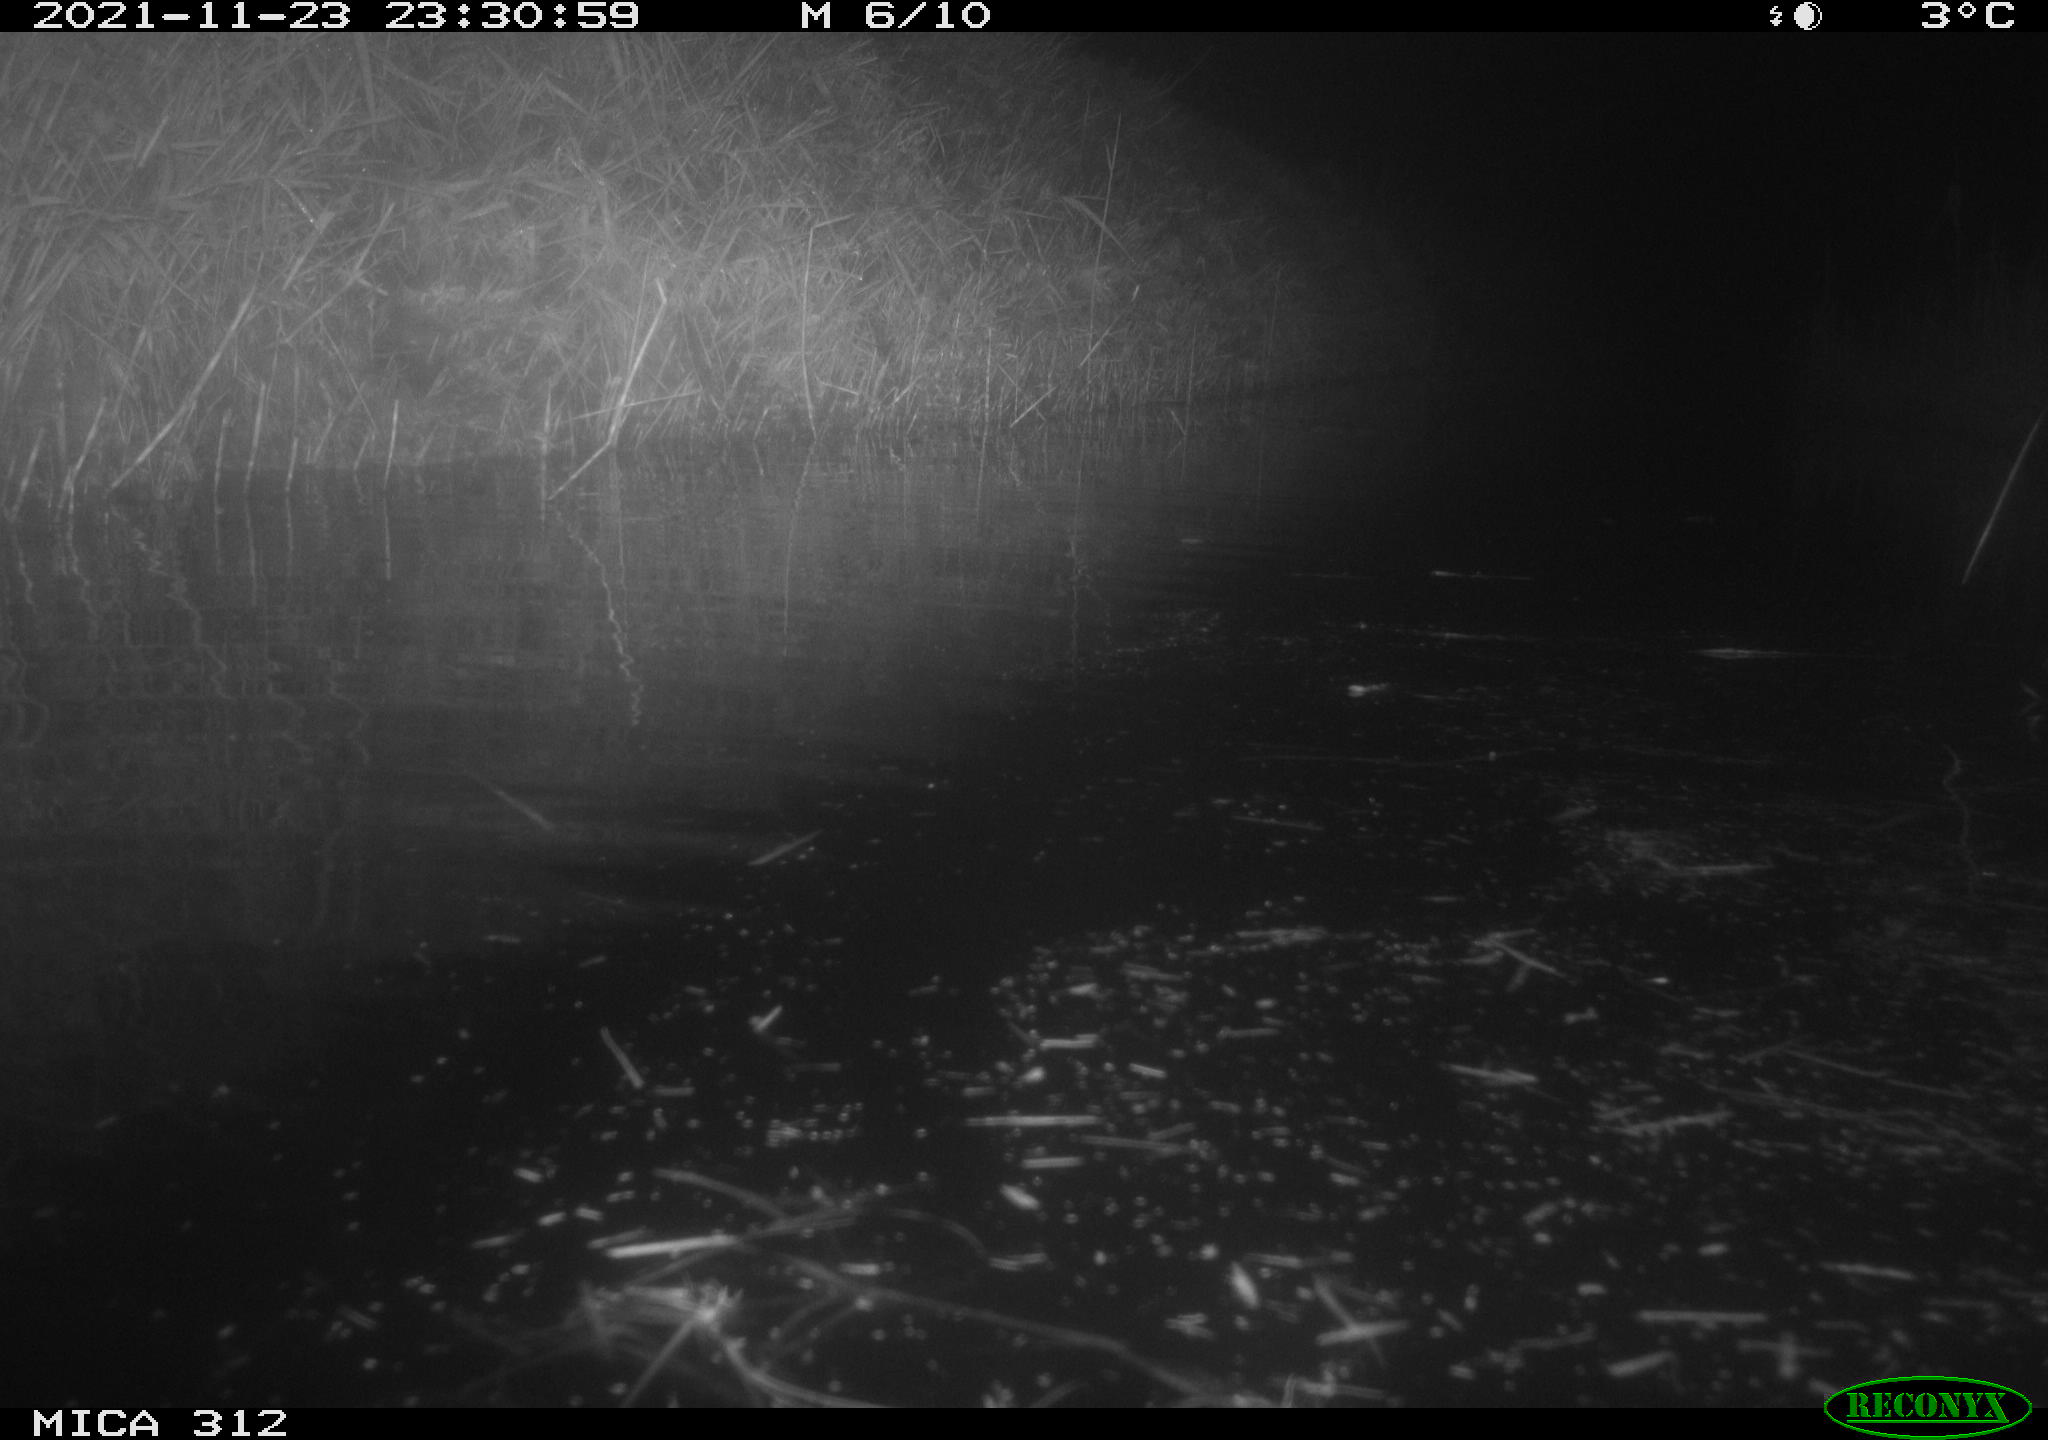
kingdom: Animalia
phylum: Chordata
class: Mammalia
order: Rodentia
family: Muridae
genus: Rattus
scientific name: Rattus norvegicus
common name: Brown rat
